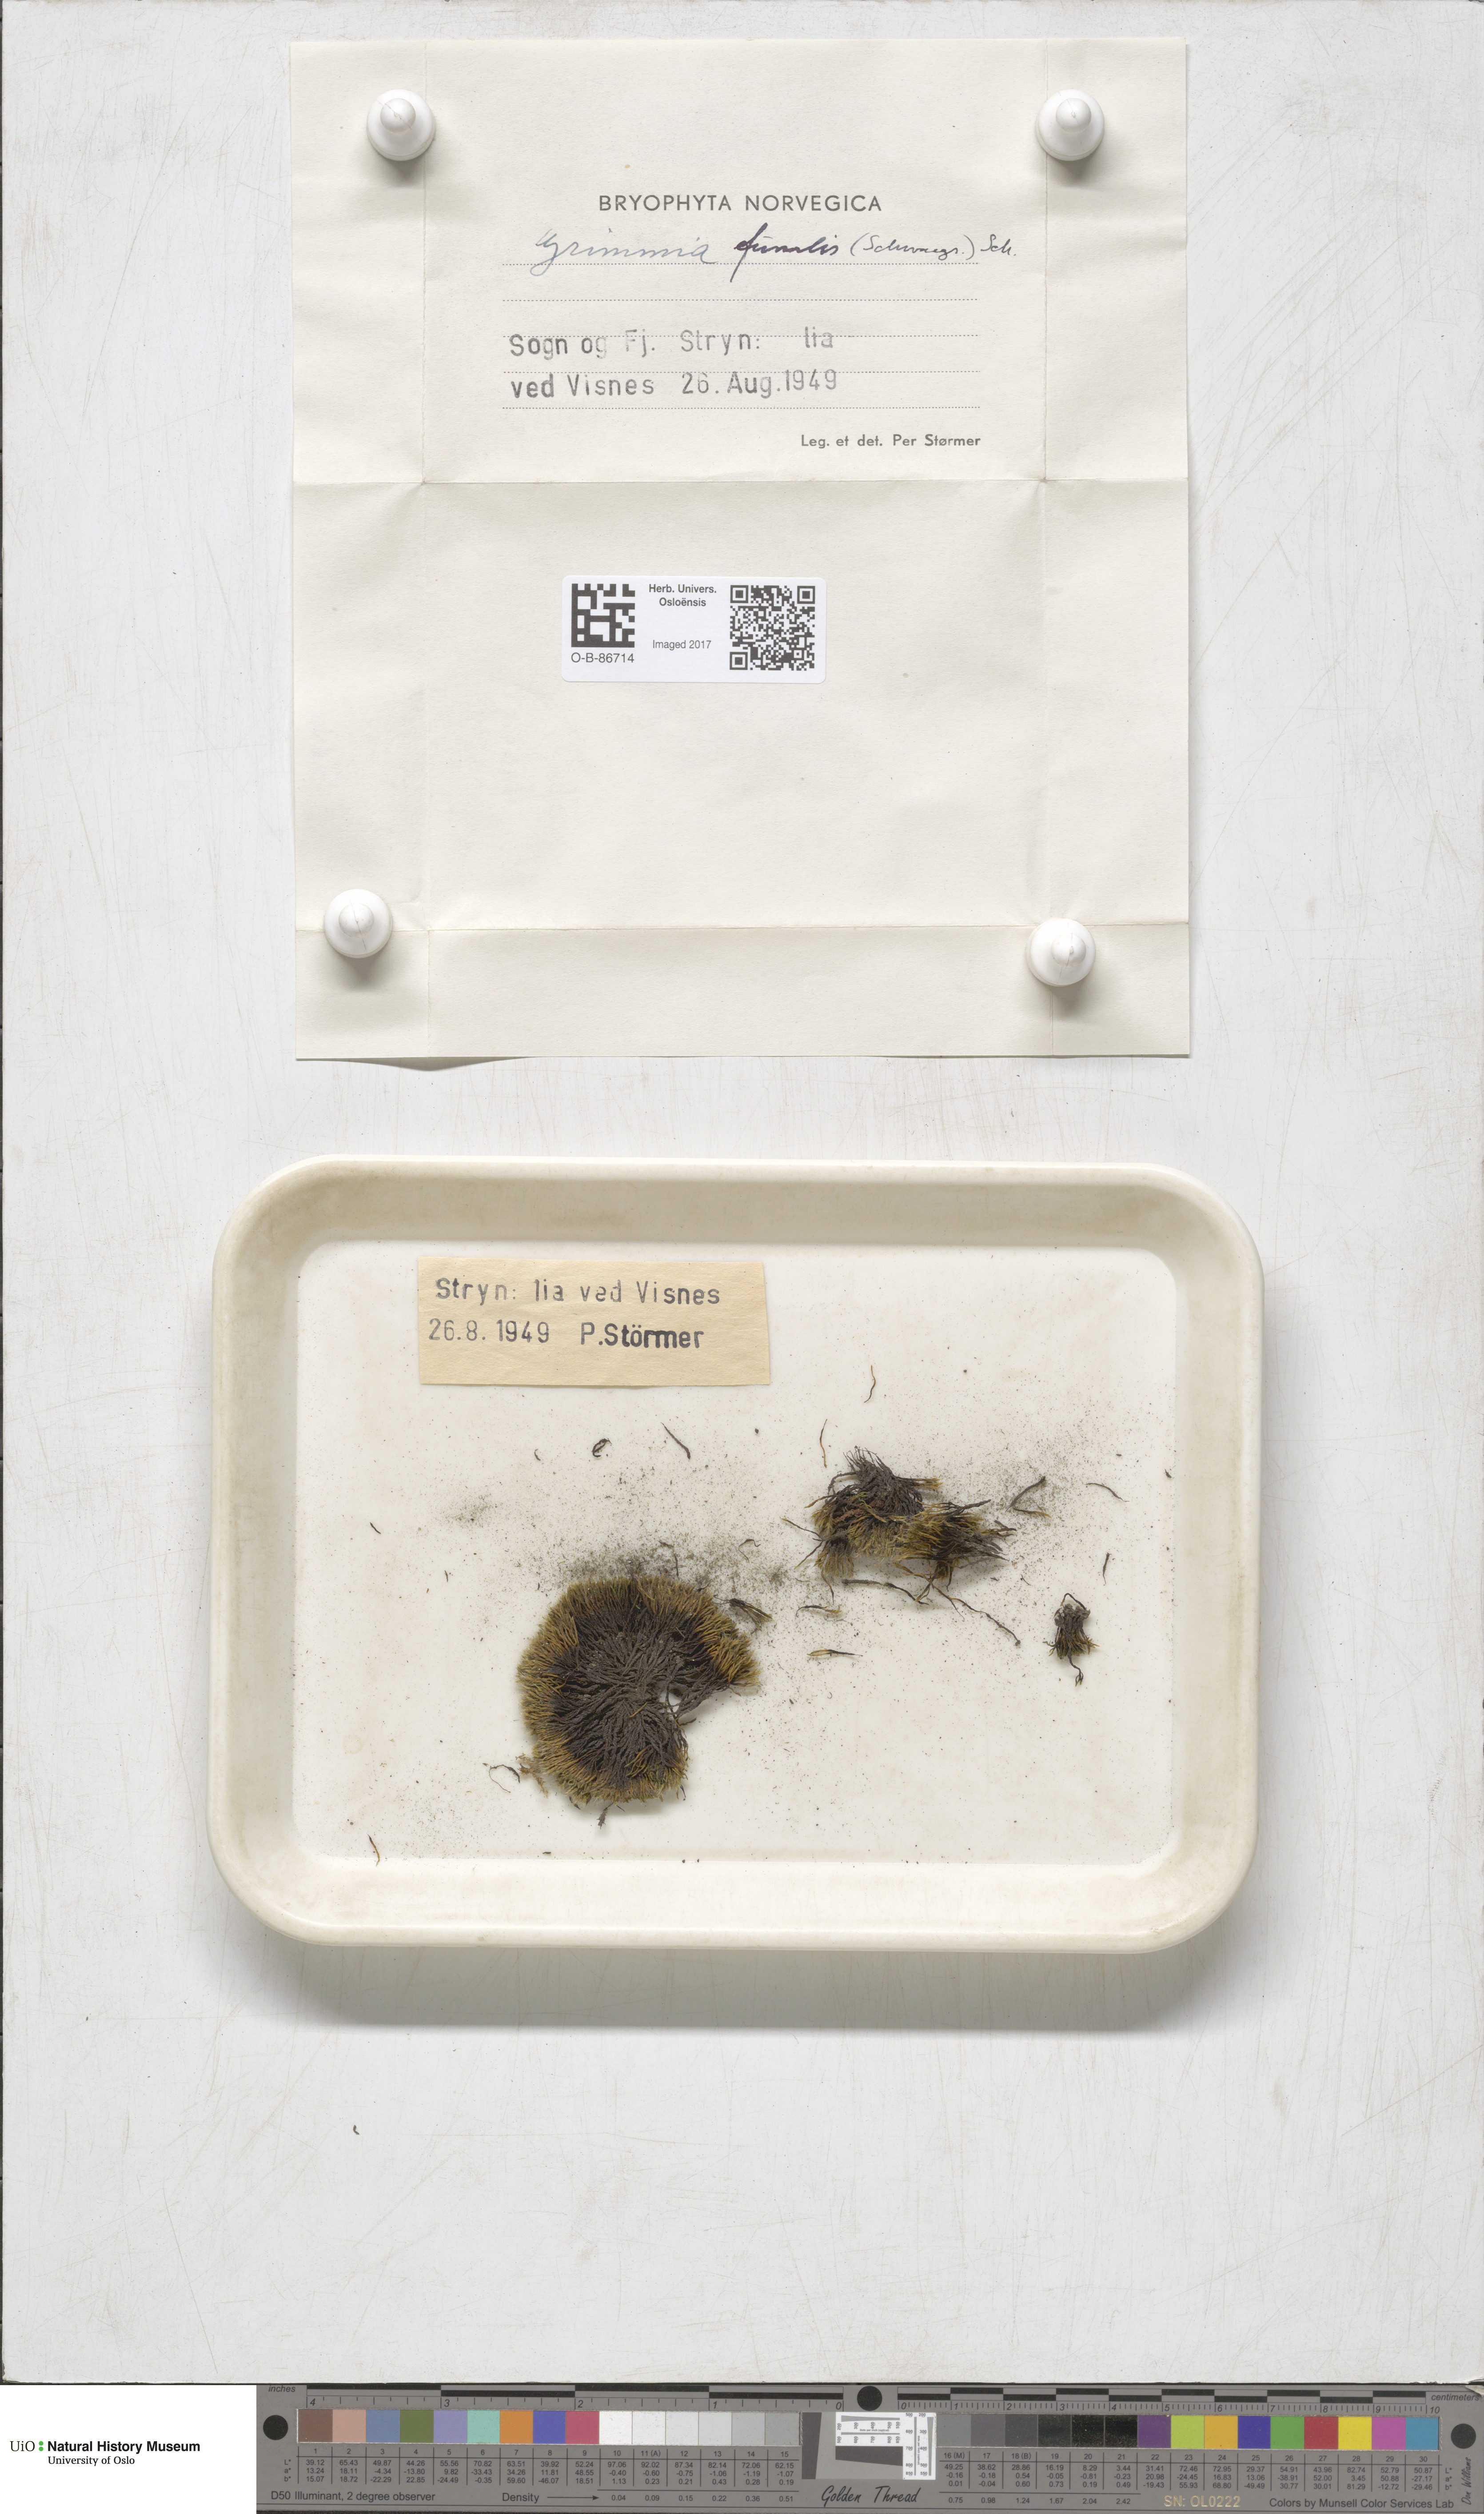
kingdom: Plantae
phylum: Bryophyta
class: Bryopsida
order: Grimmiales
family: Grimmiaceae
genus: Grimmia
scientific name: Grimmia funalis
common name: String grimmia
